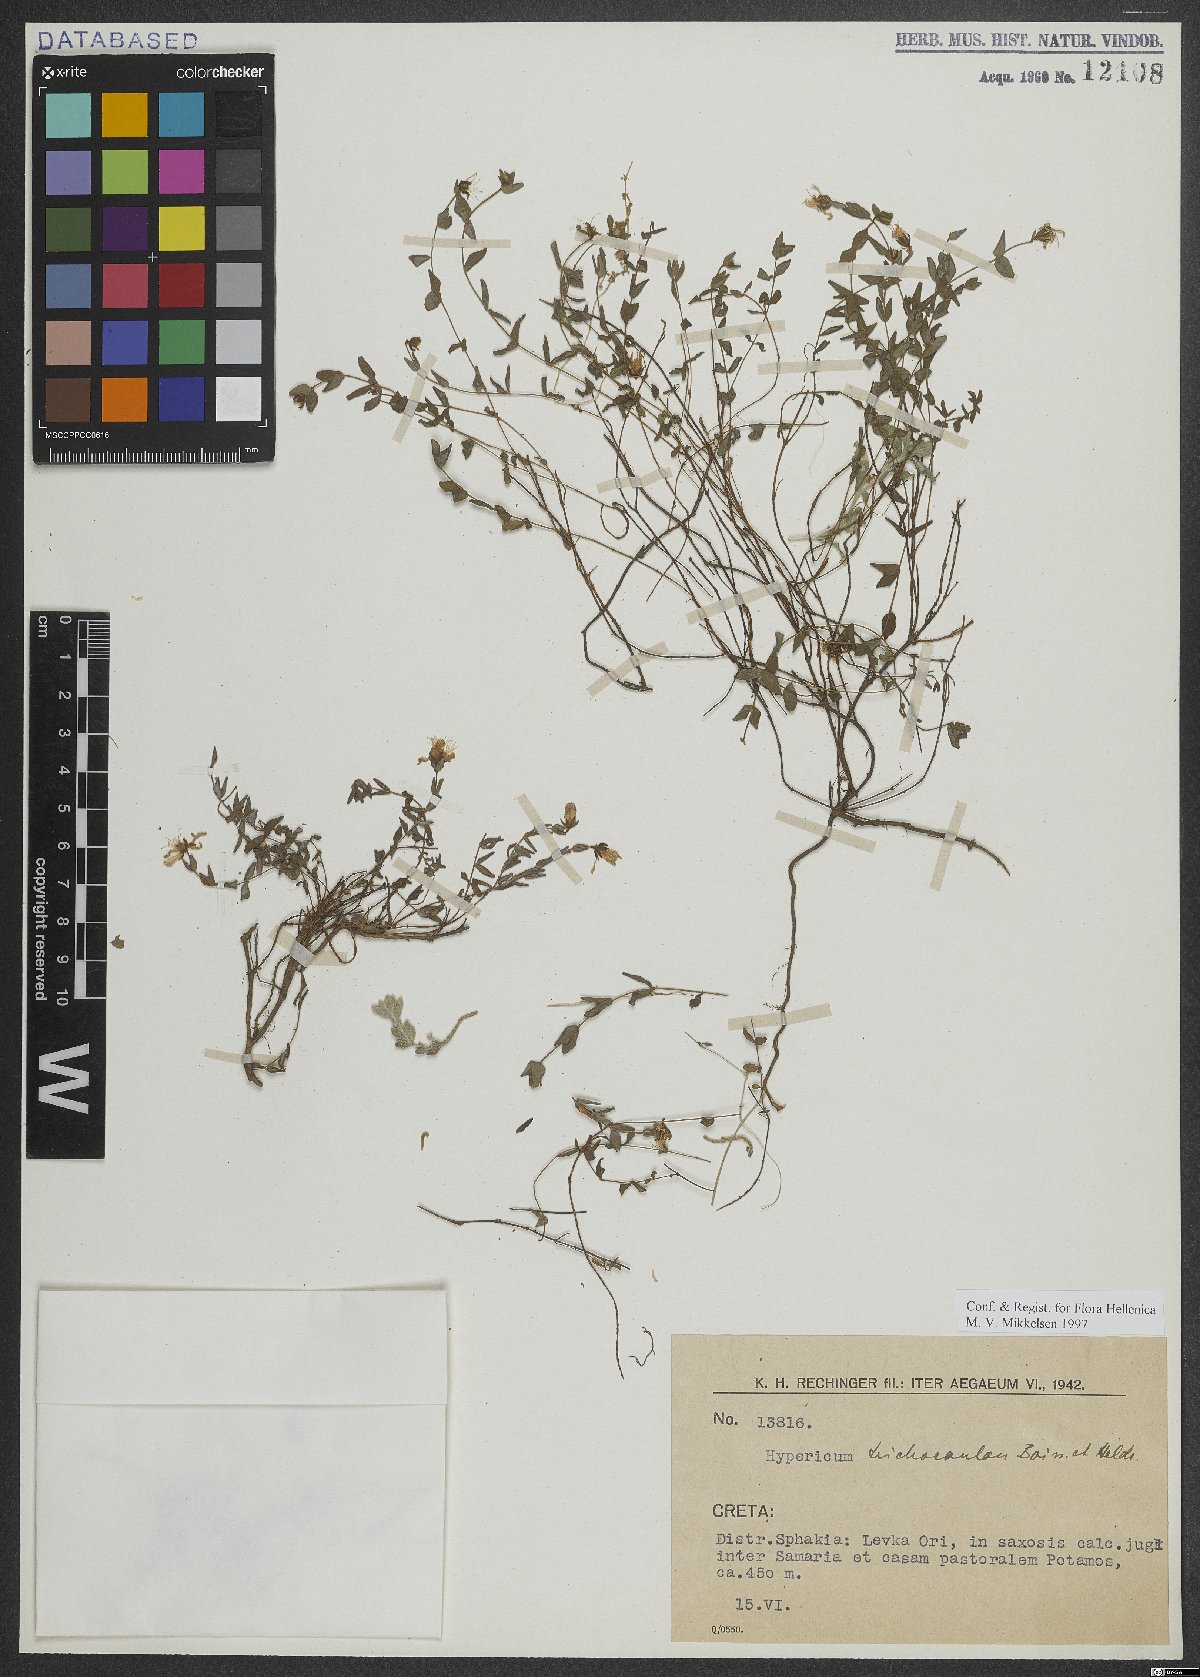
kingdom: Plantae
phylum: Tracheophyta
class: Magnoliopsida
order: Malpighiales
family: Hypericaceae
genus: Hypericum
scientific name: Hypericum trichocaulon
